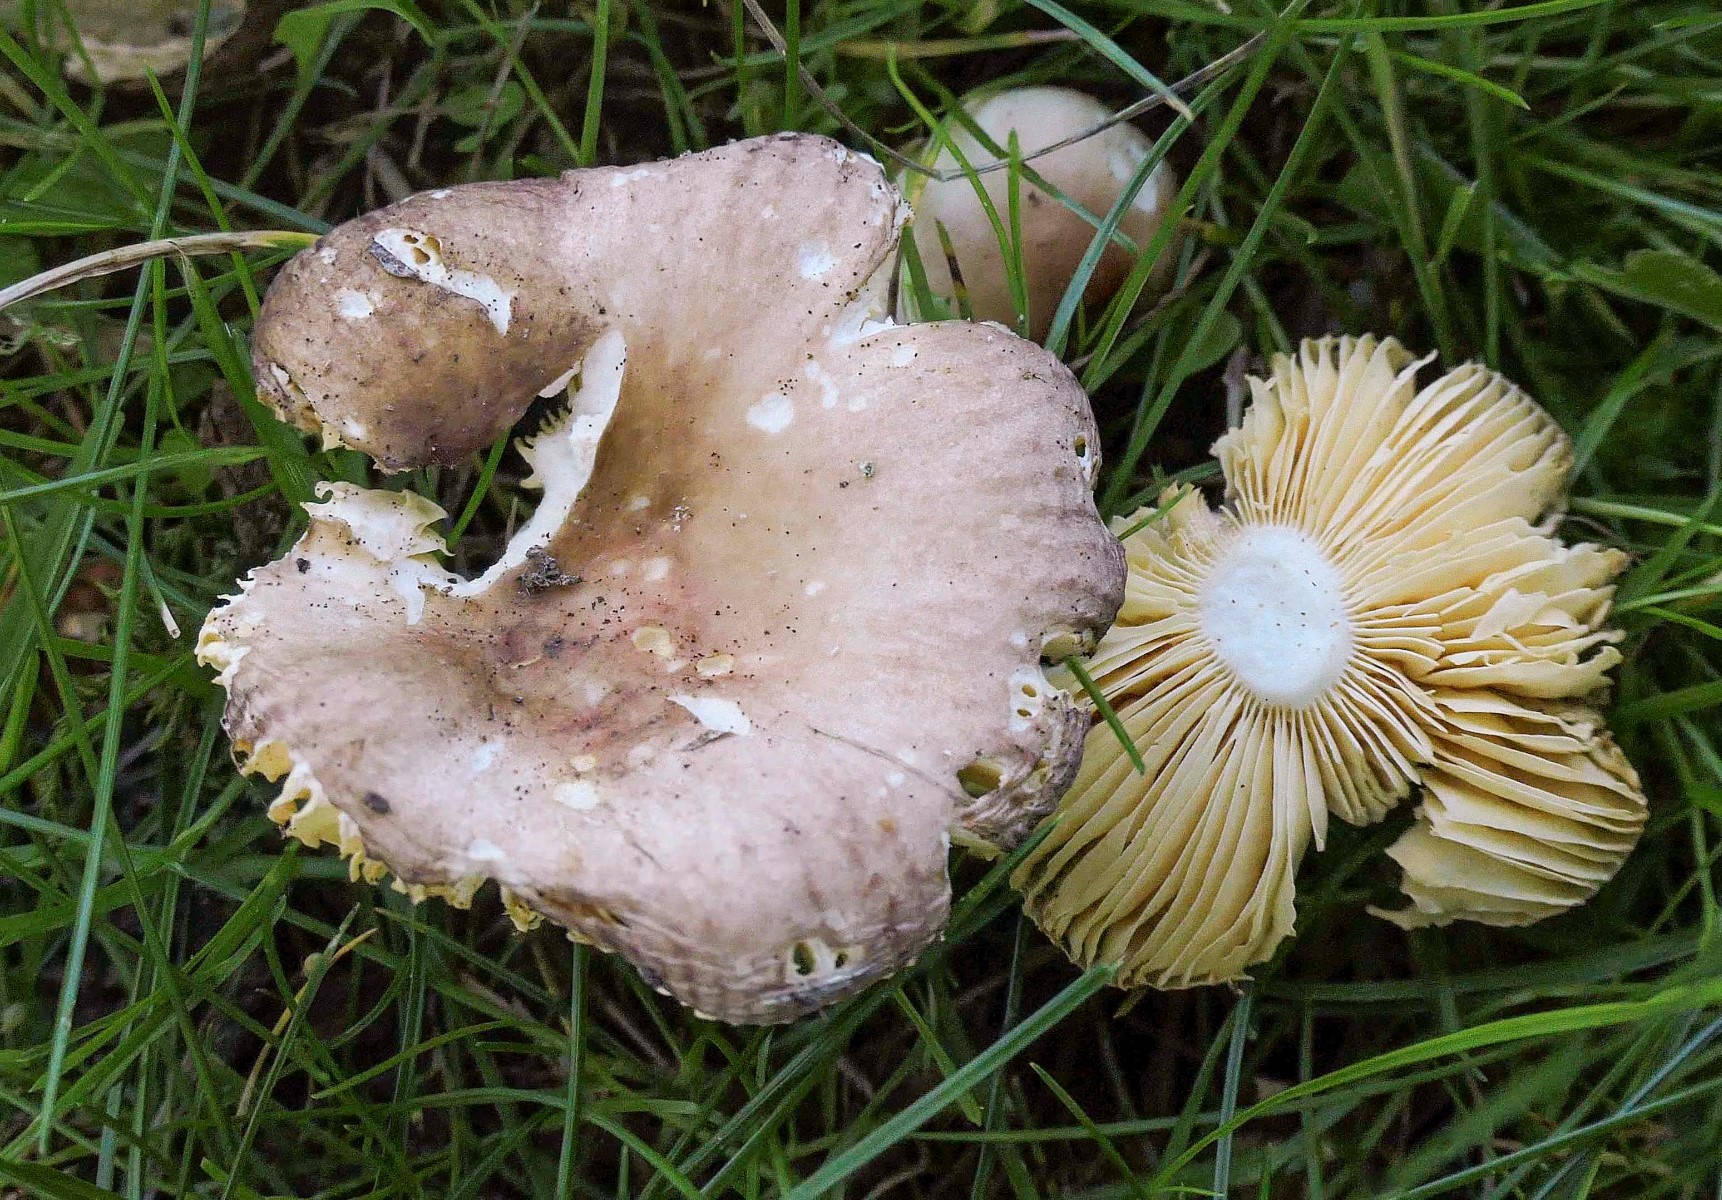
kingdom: Fungi
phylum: Basidiomycota
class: Agaricomycetes
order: Russulales
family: Russulaceae
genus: Russula
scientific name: Russula odorata
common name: duft-skørhat
